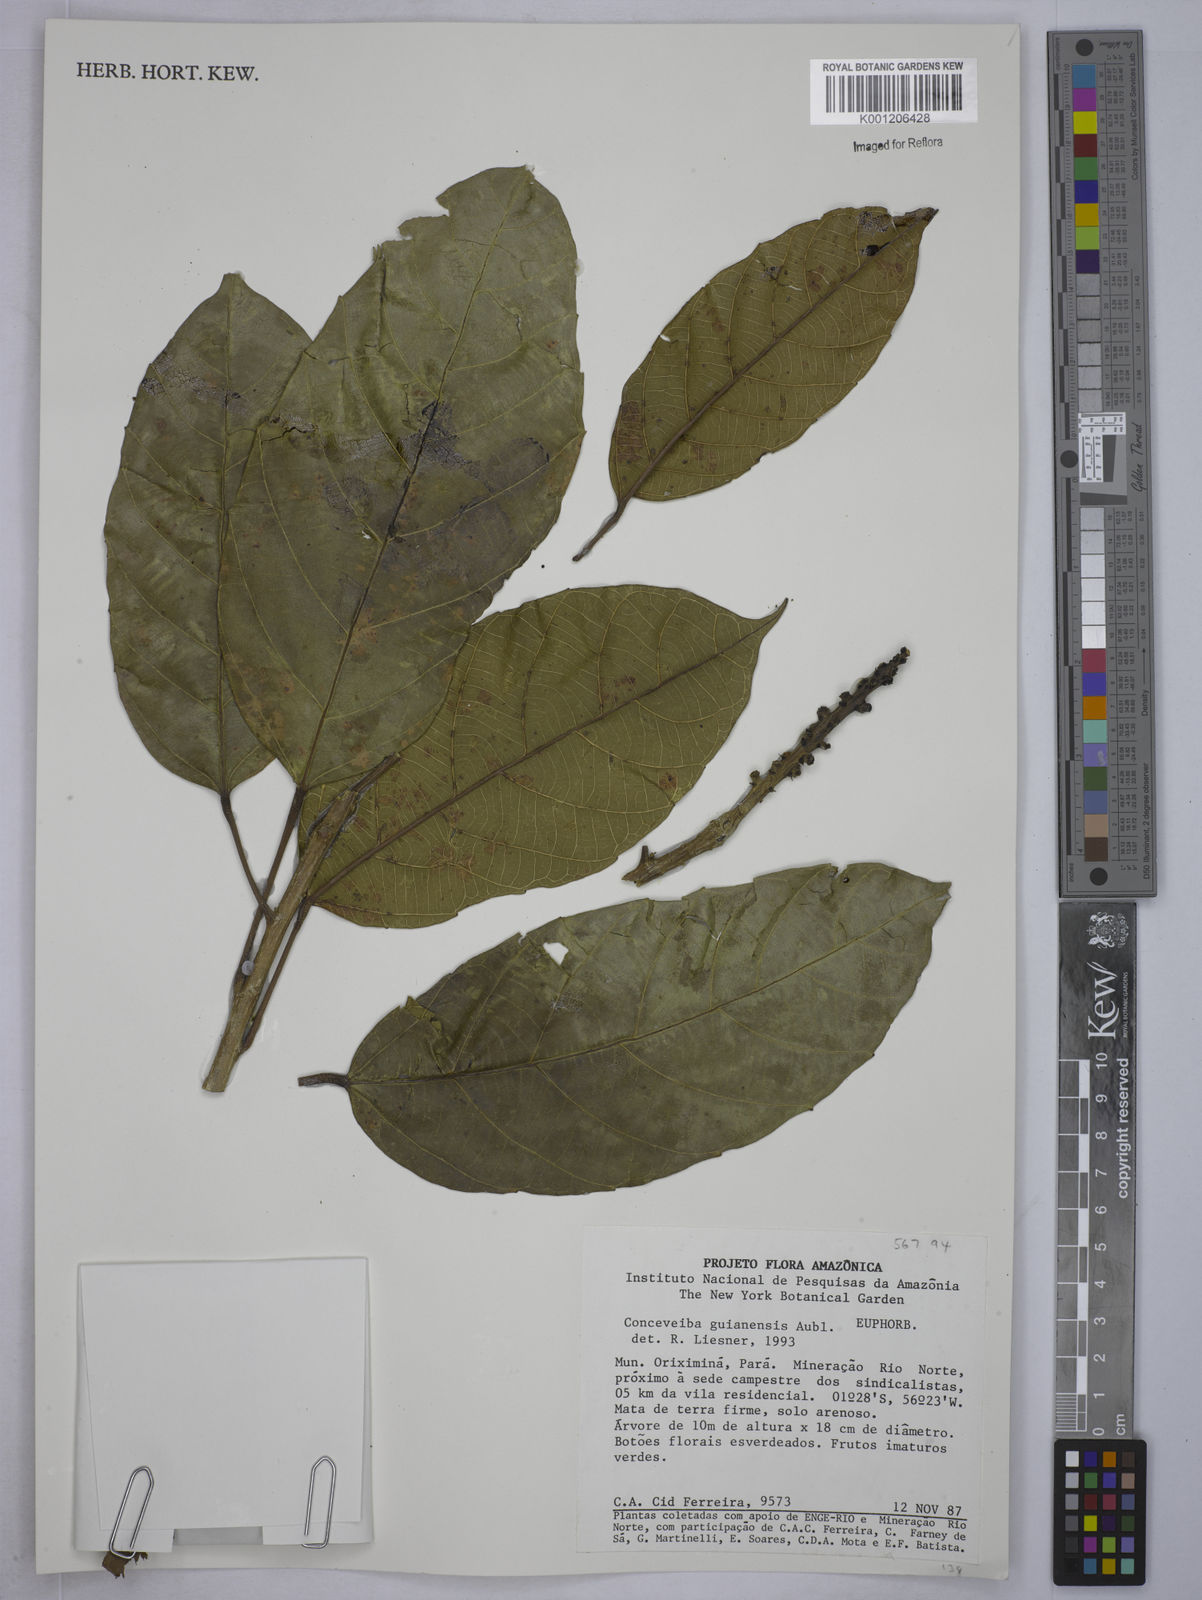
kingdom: Plantae
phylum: Tracheophyta
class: Magnoliopsida
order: Malpighiales
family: Euphorbiaceae
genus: Conceveiba
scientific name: Conceveiba guianensis
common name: Poatoru
